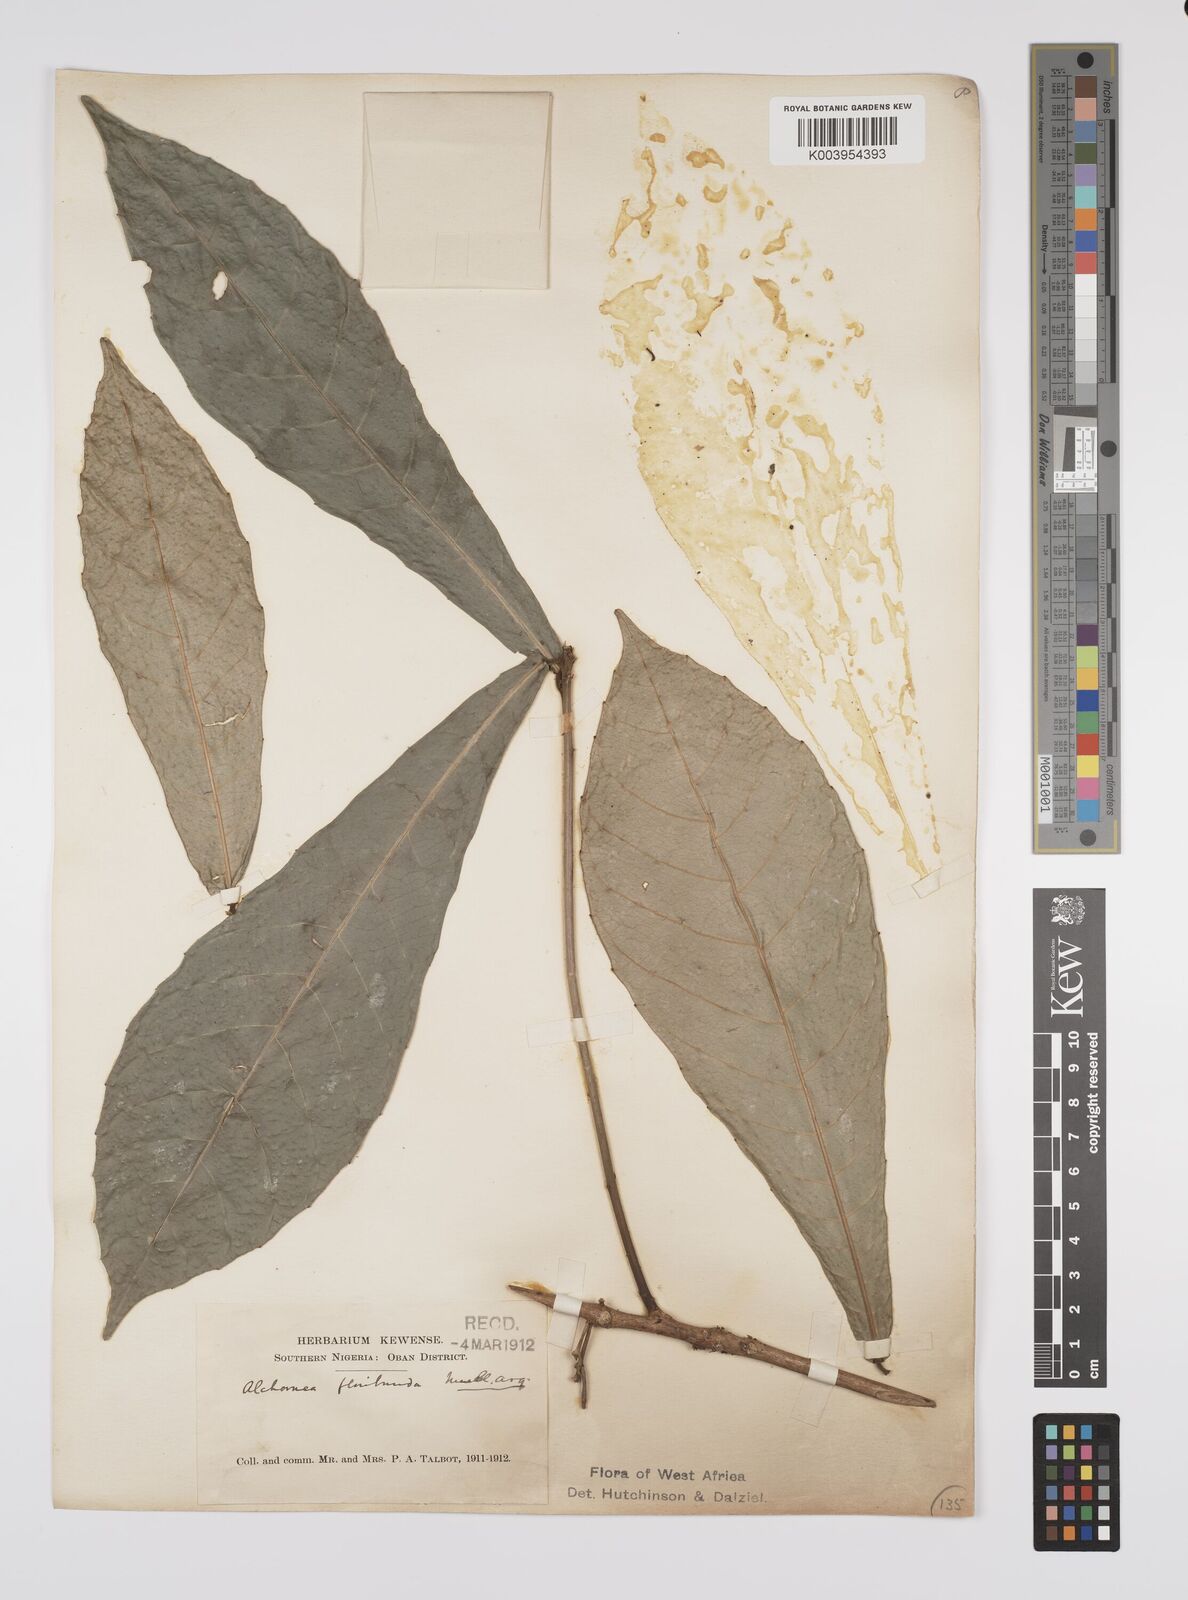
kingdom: Plantae
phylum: Tracheophyta
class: Magnoliopsida
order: Malpighiales
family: Euphorbiaceae
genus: Alchornea
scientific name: Alchornea floribunda
